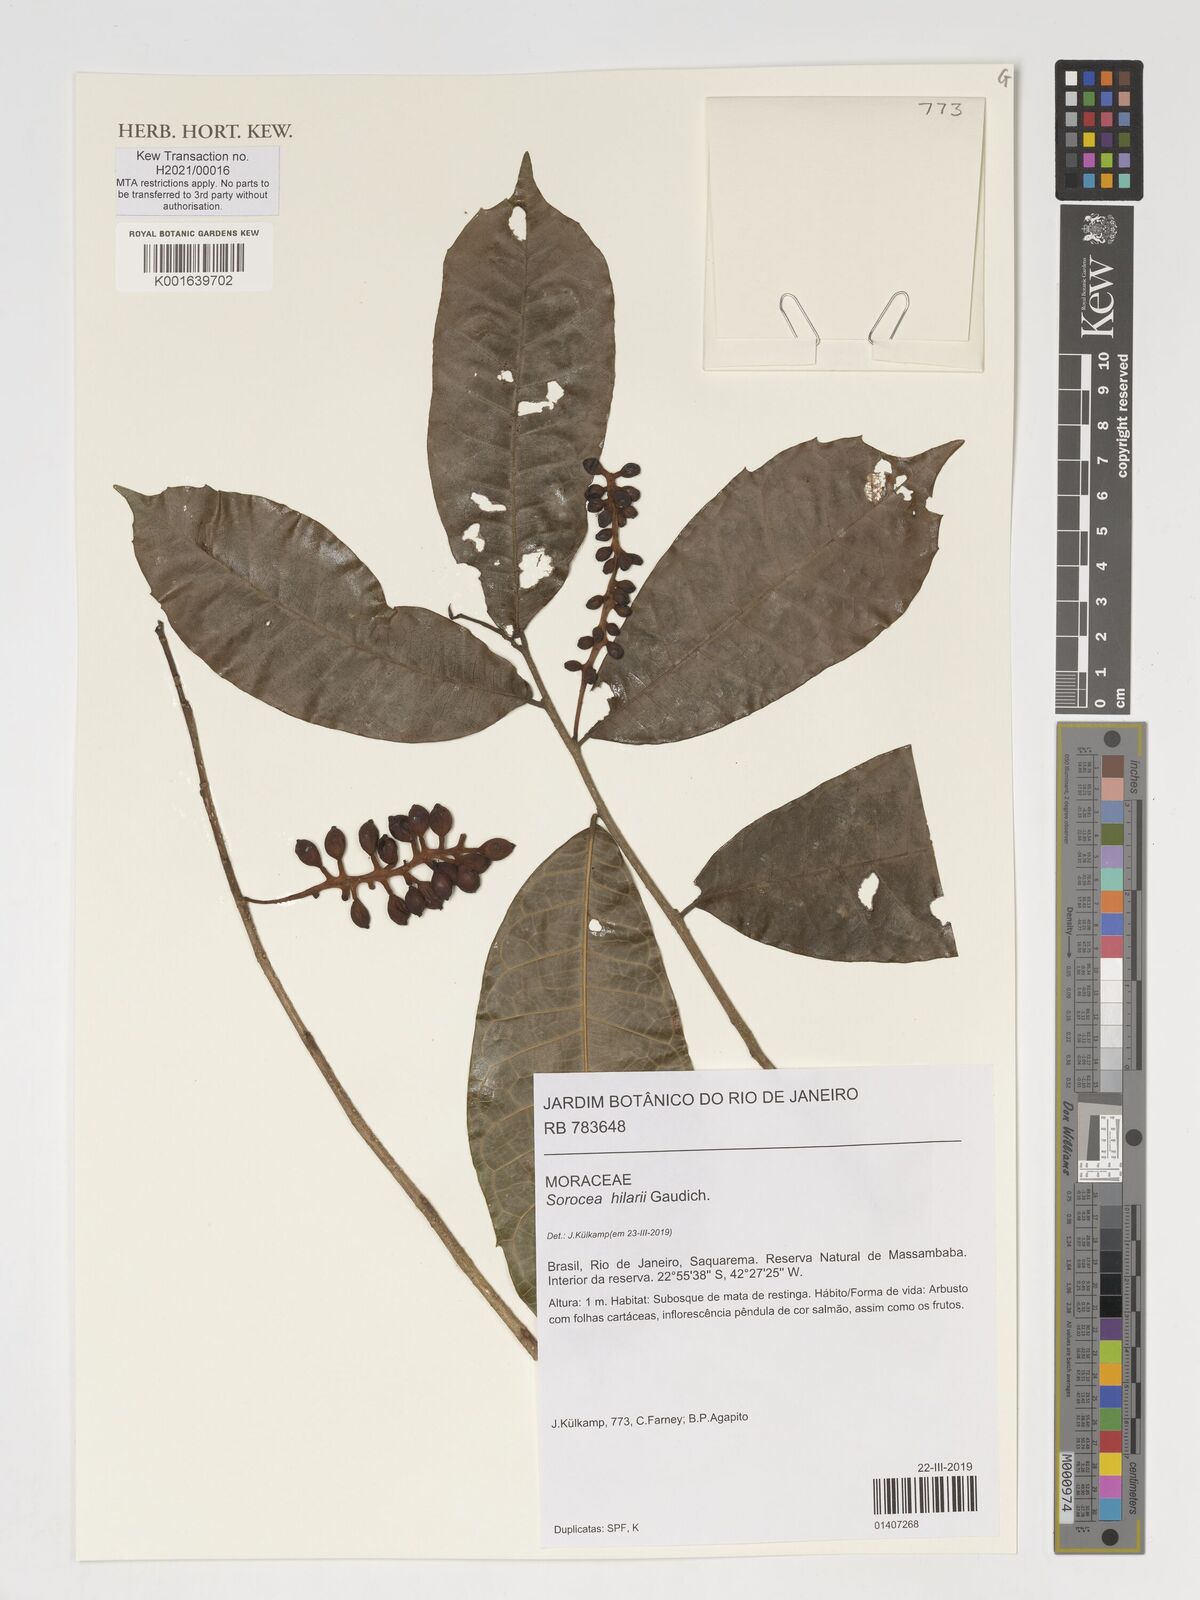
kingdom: Plantae
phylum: Tracheophyta
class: Magnoliopsida
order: Rosales
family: Moraceae
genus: Sorocea
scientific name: Sorocea hilarii
